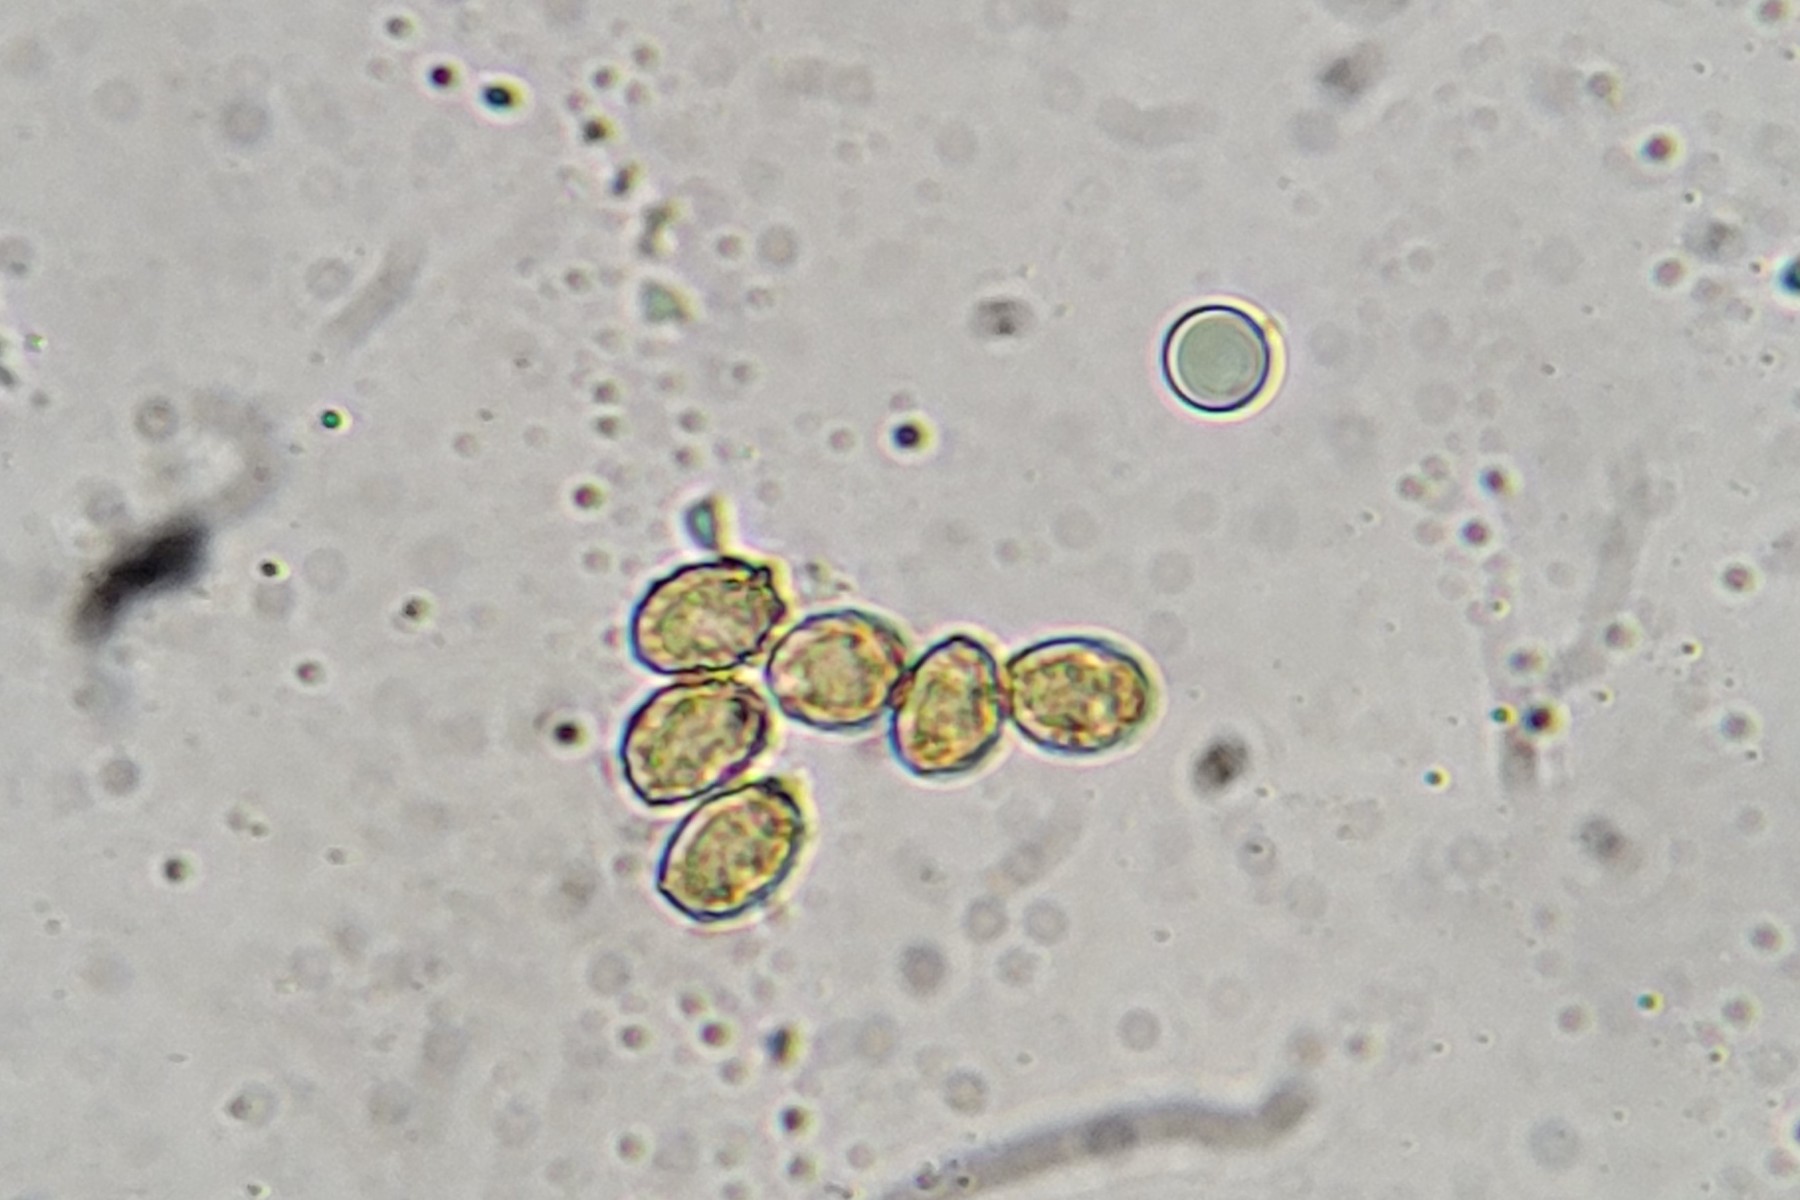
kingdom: Fungi
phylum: Basidiomycota
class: Agaricomycetes
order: Agaricales
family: Cortinariaceae
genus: Cortinarius
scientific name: Cortinarius punctatiformis
